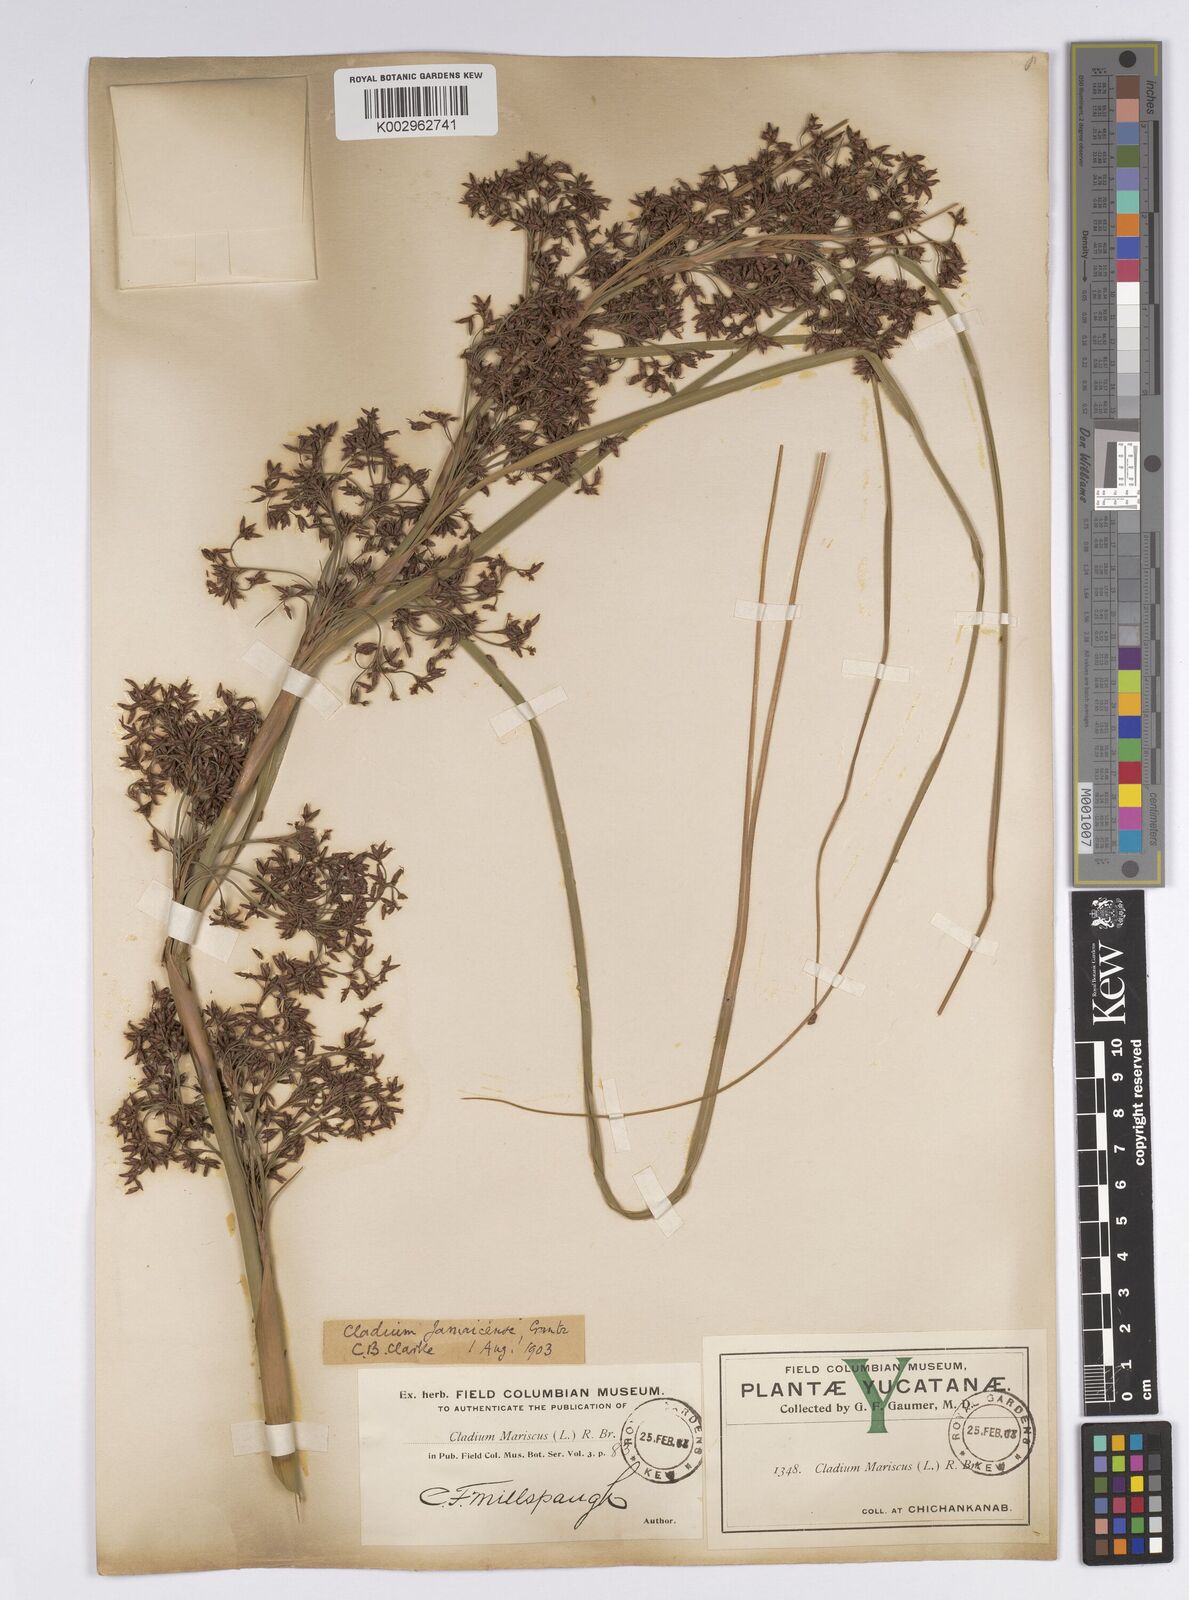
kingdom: Plantae
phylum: Tracheophyta
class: Liliopsida
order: Poales
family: Cyperaceae
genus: Cladium
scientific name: Cladium mariscus
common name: Great fen-sedge
